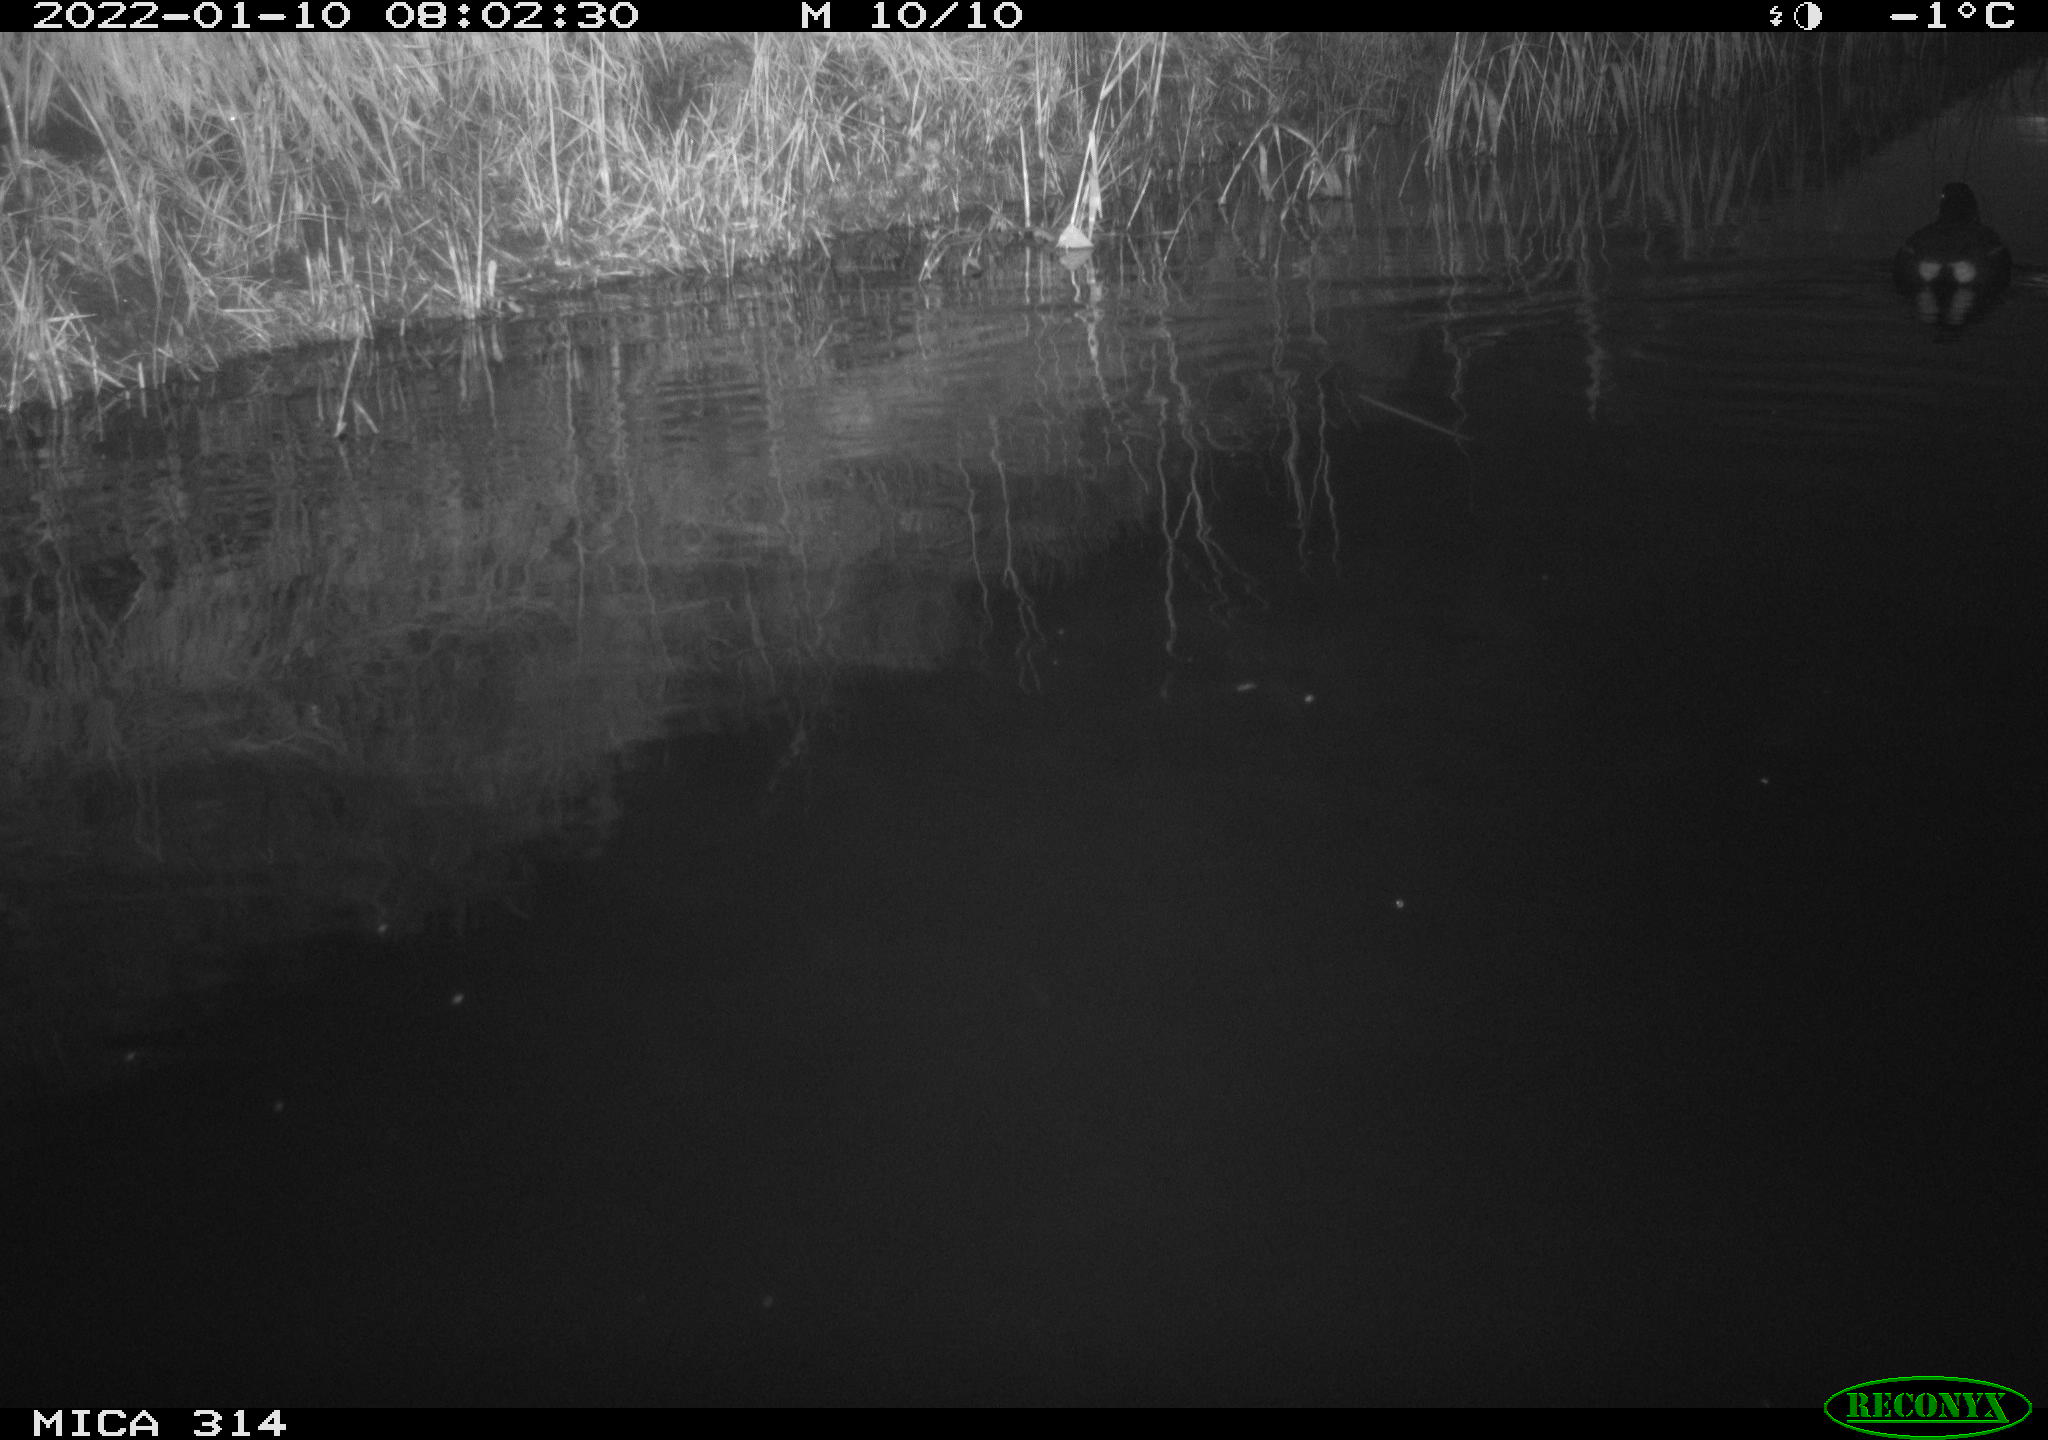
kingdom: Animalia
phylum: Chordata
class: Aves
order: Gruiformes
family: Rallidae
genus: Gallinula
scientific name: Gallinula chloropus
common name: Common moorhen
